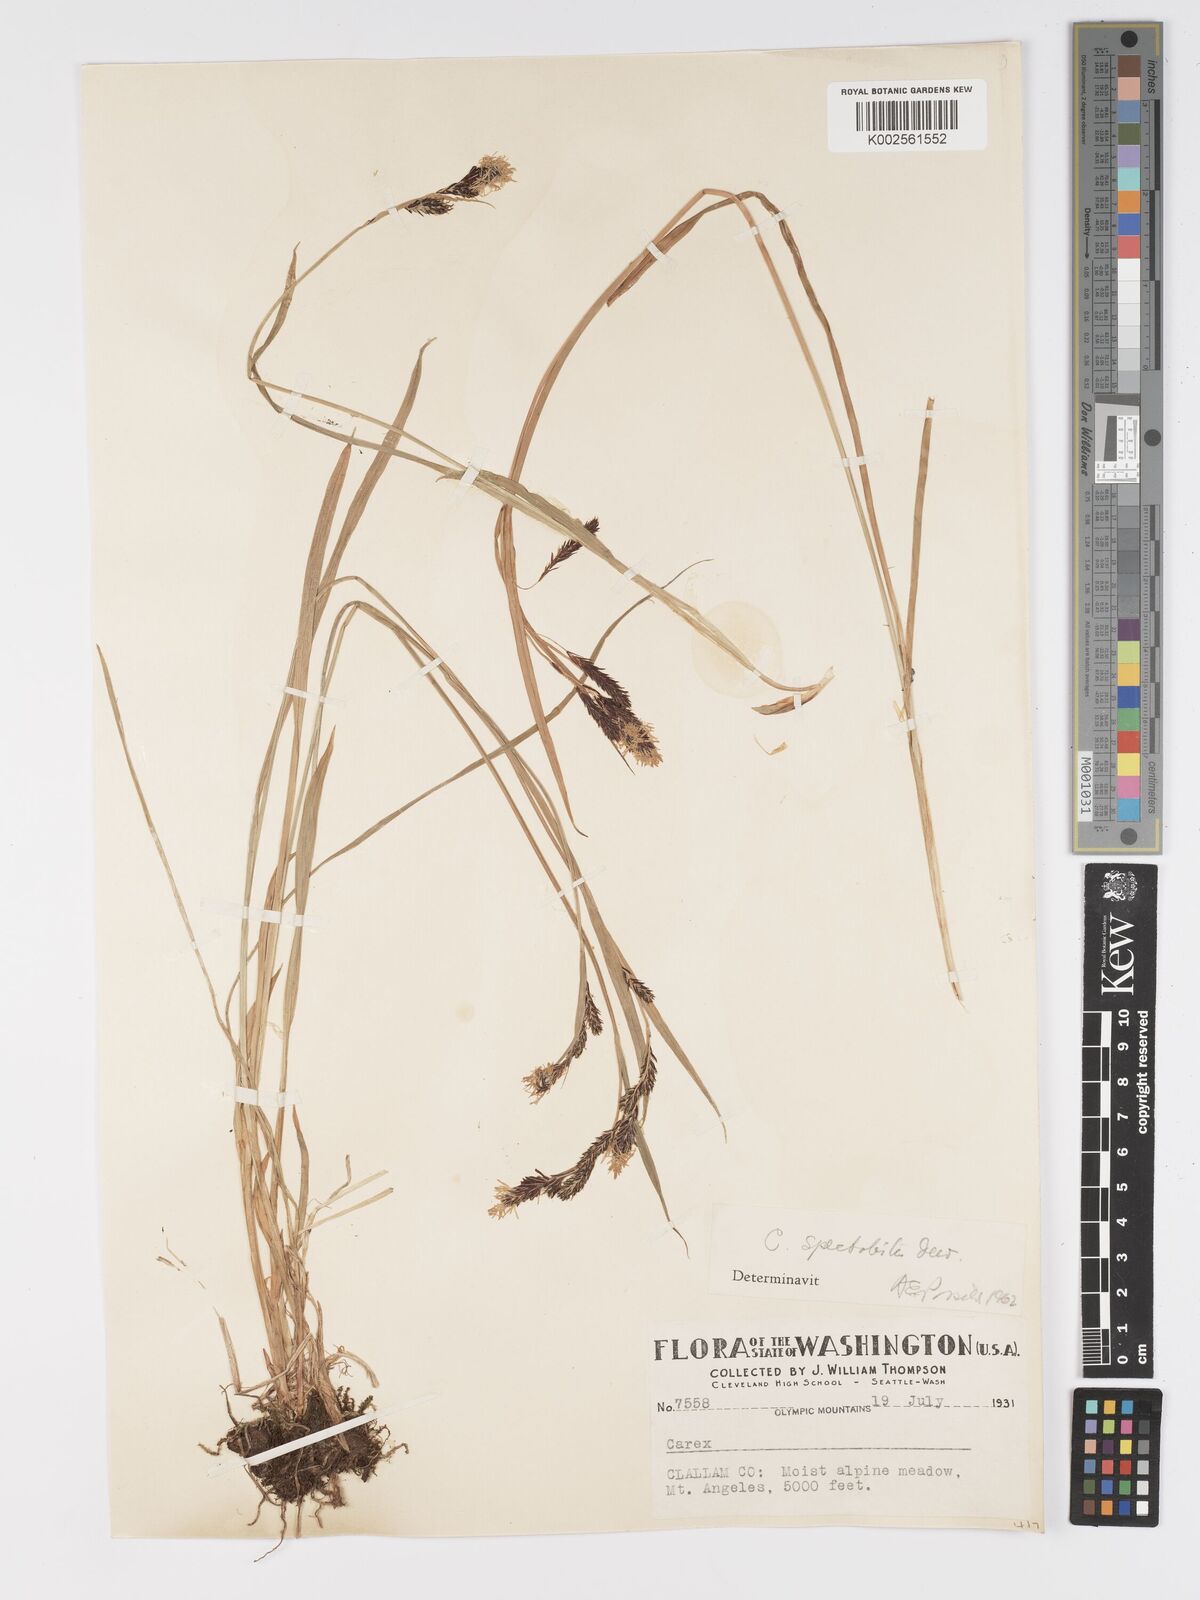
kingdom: Plantae
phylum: Tracheophyta
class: Liliopsida
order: Poales
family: Cyperaceae
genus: Carex
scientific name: Carex spectabilis
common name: Northwestern showy sedge
